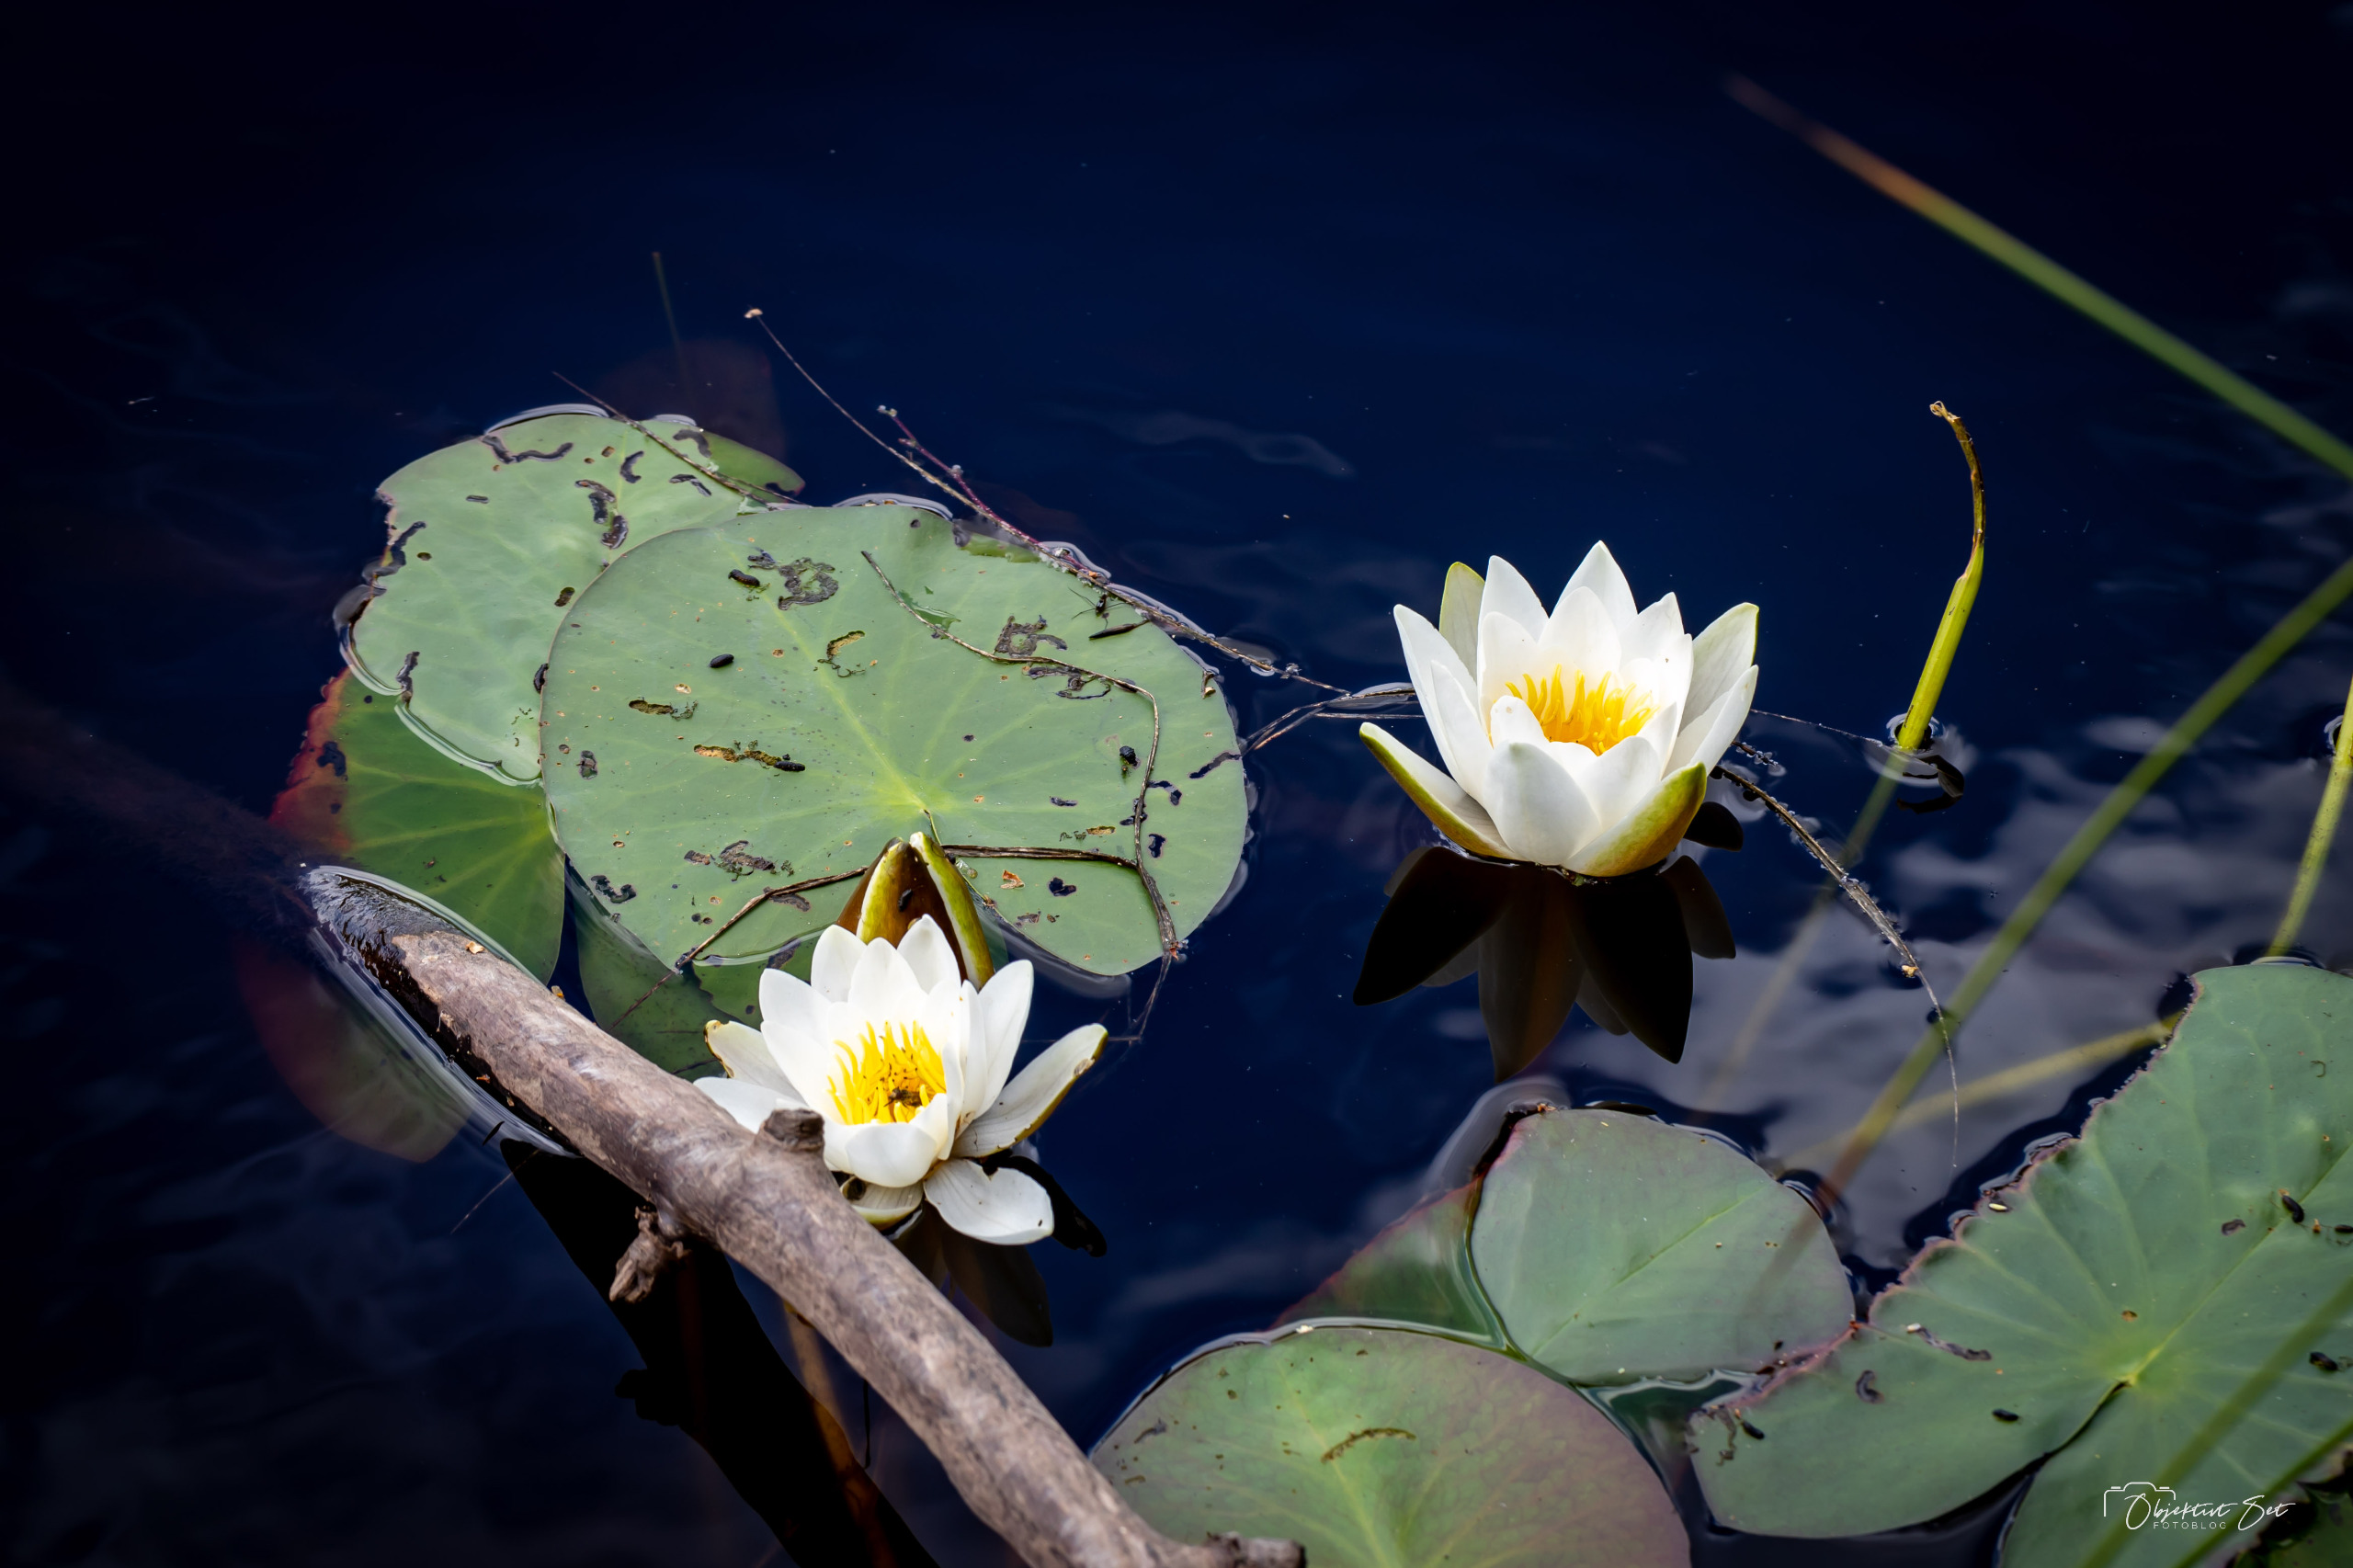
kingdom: Plantae
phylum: Tracheophyta
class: Magnoliopsida
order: Nymphaeales
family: Nymphaeaceae
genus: Nymphaea
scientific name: Nymphaea alba
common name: Hvid åkande
